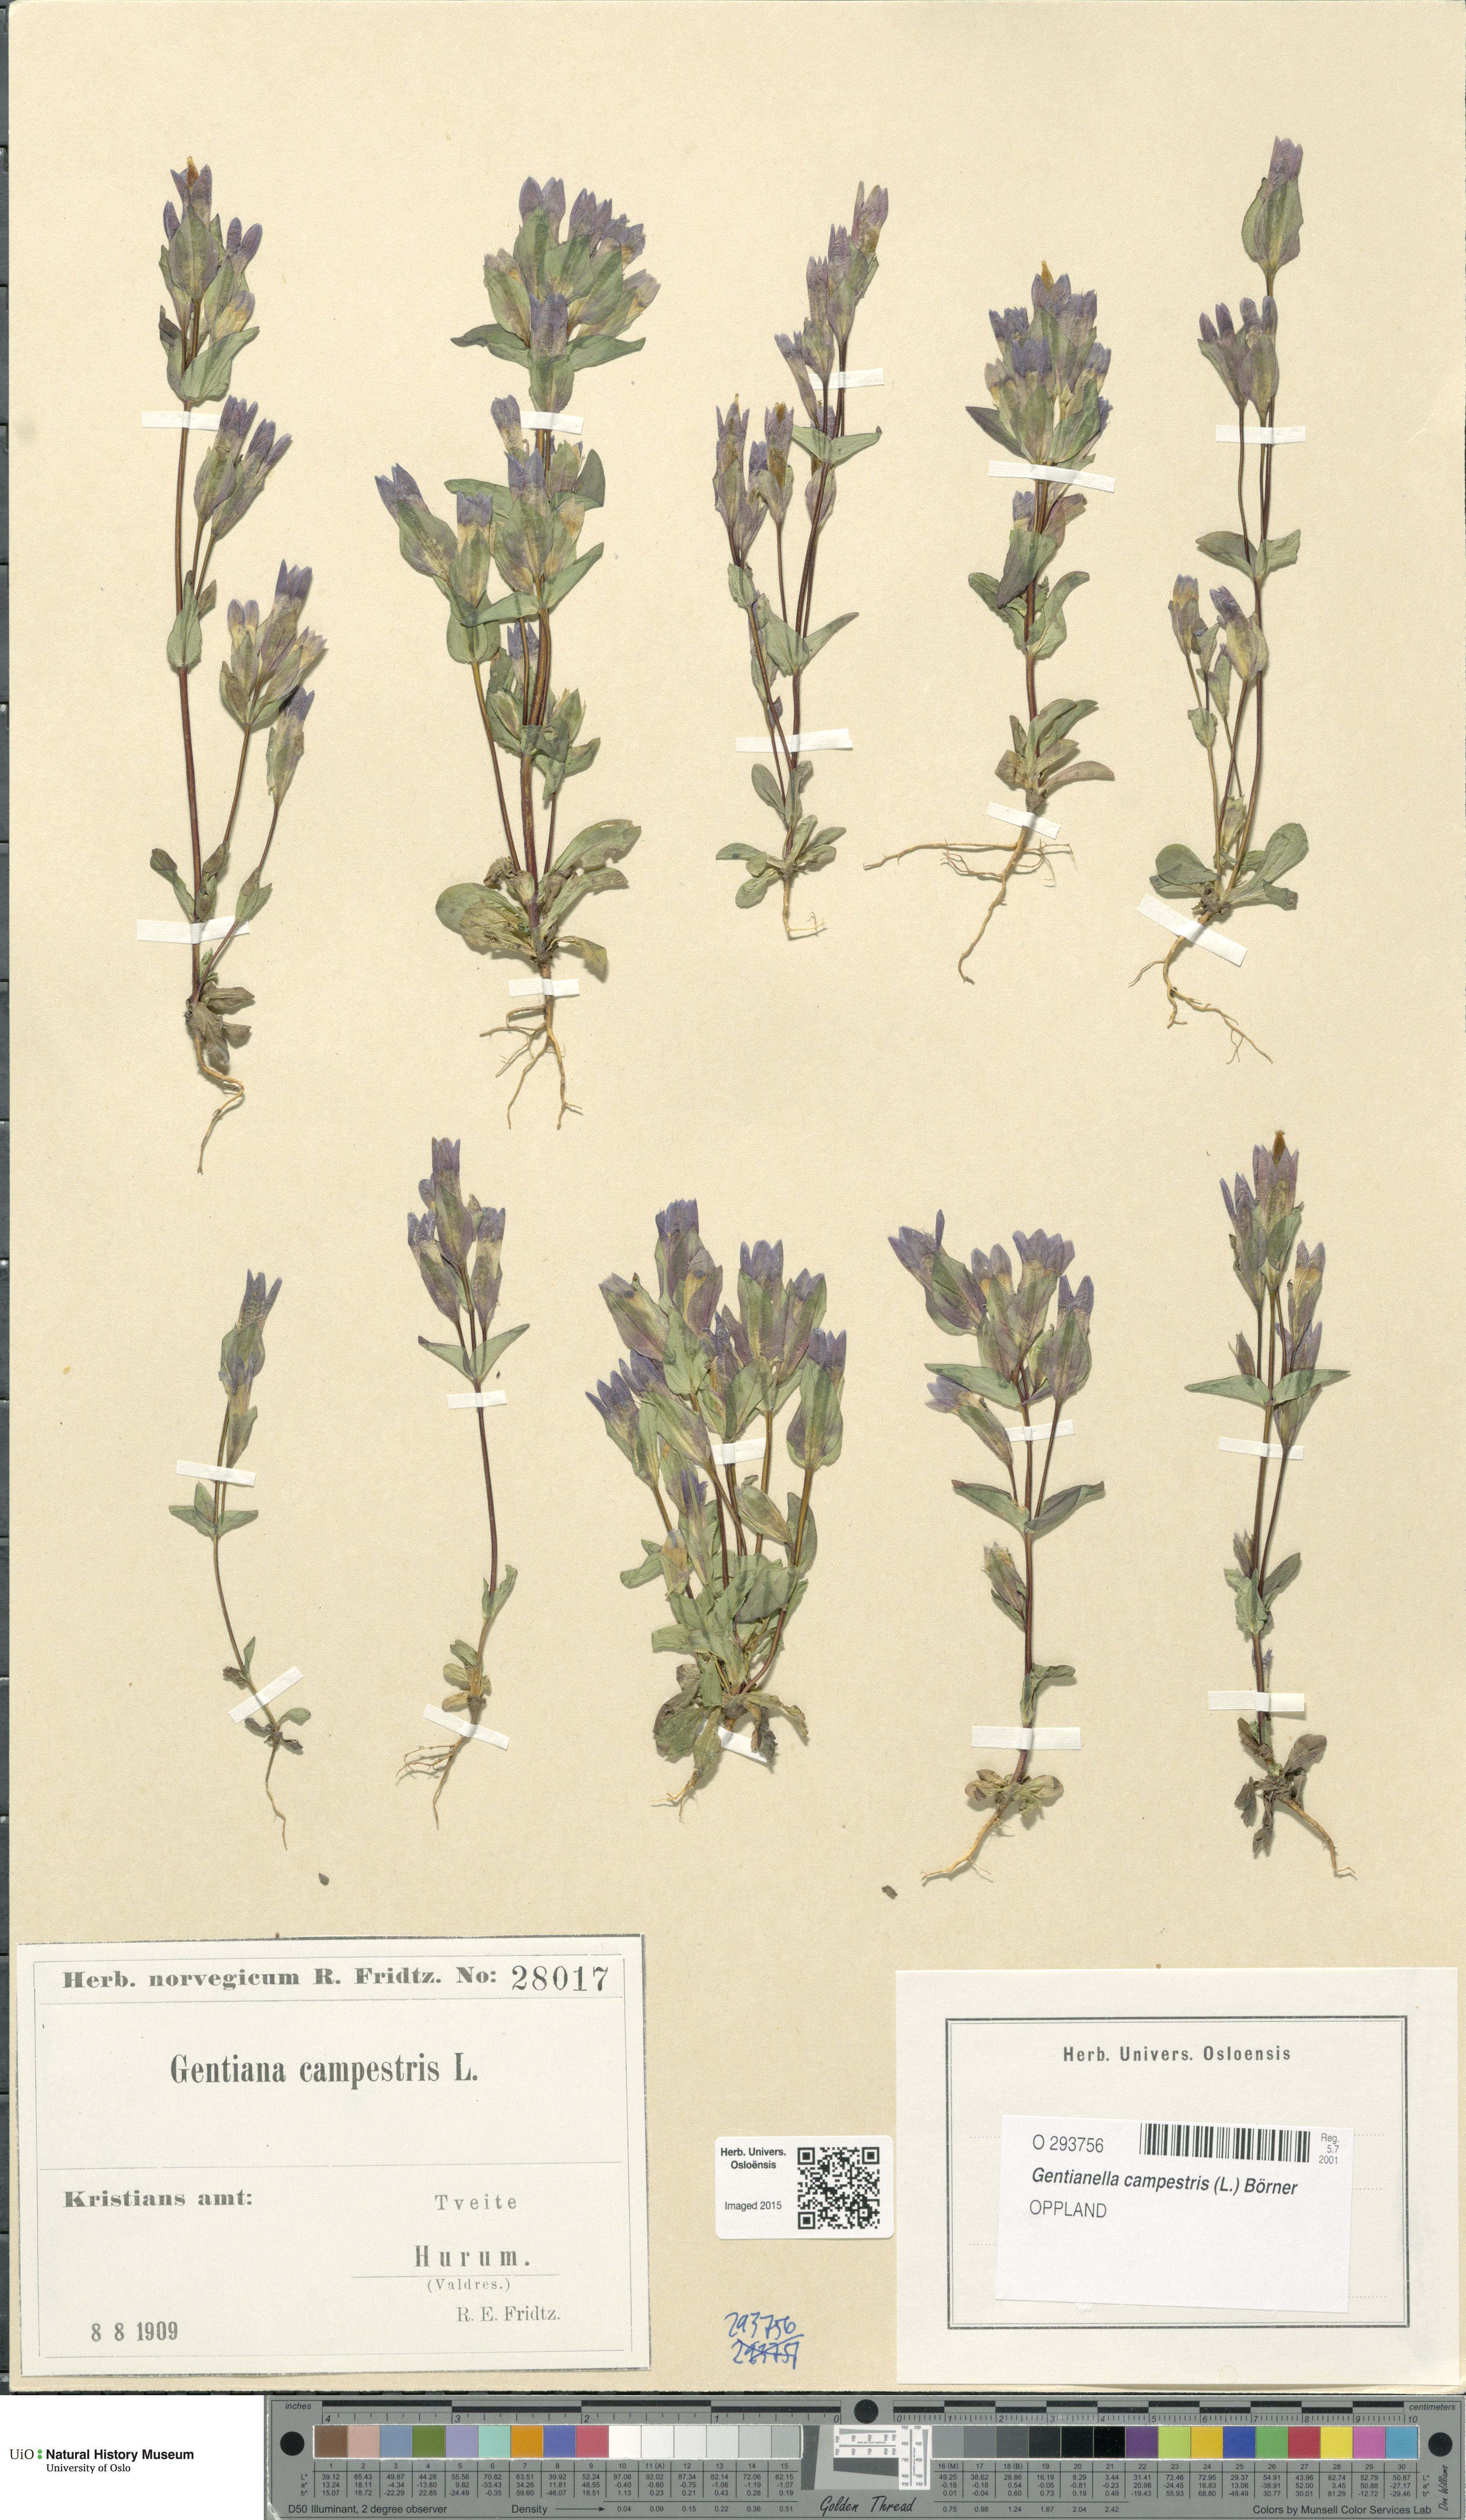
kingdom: Plantae
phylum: Tracheophyta
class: Magnoliopsida
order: Gentianales
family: Gentianaceae
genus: Gentianella
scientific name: Gentianella campestris
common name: Field gentian
